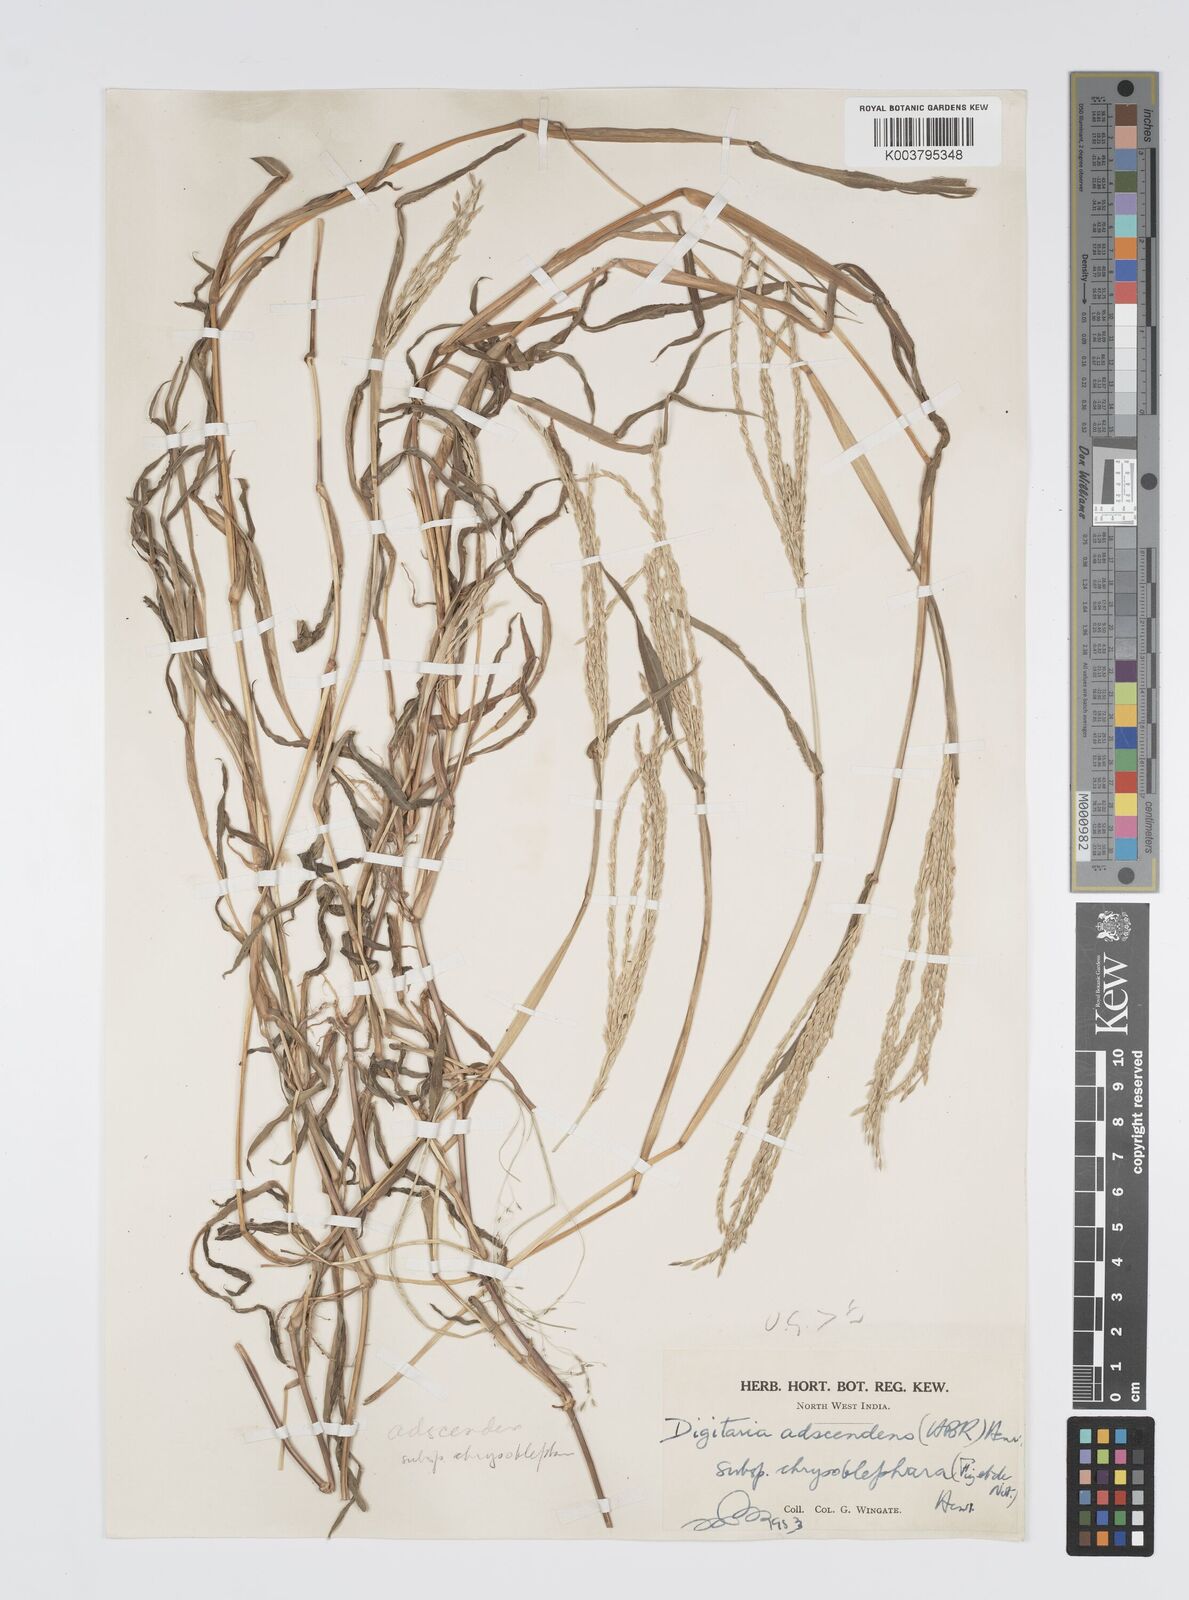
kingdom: Plantae
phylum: Tracheophyta
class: Liliopsida
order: Poales
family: Poaceae
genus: Digitaria
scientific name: Digitaria ciliaris
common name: Tropical finger-grass
